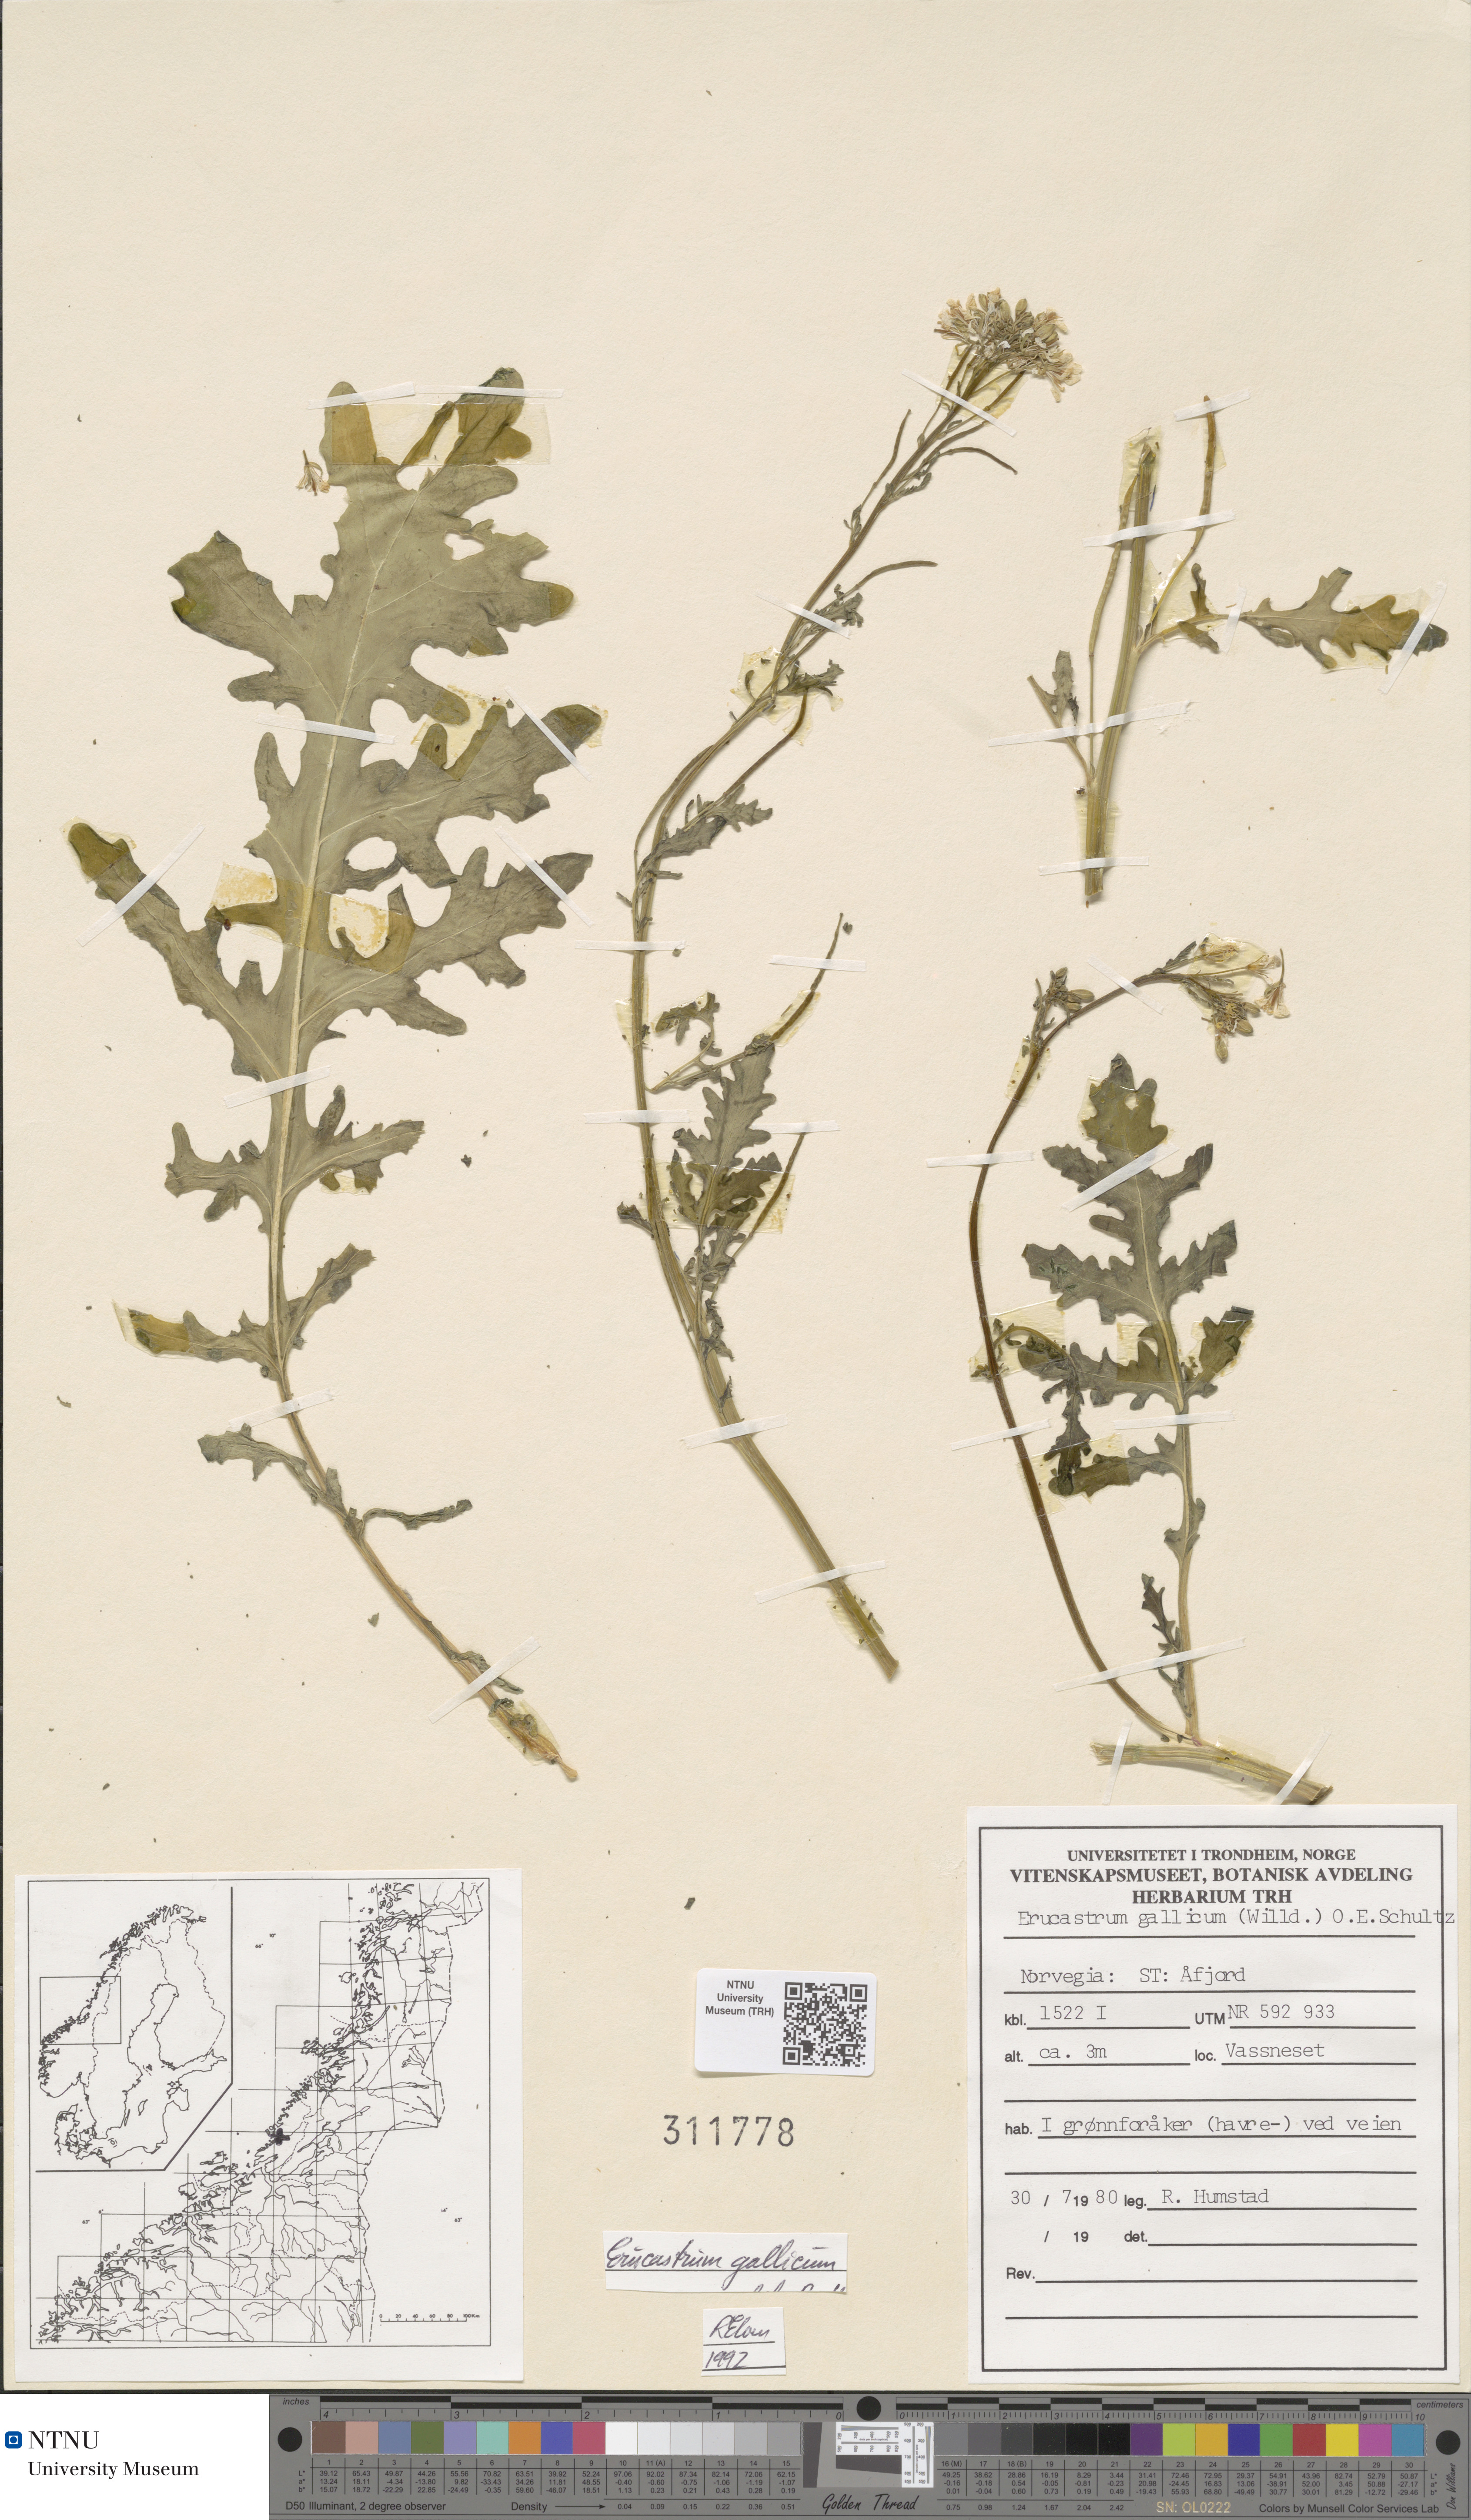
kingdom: Plantae
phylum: Tracheophyta
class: Magnoliopsida
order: Brassicales
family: Brassicaceae
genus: Erucastrum
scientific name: Erucastrum gallicum
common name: Hairy rocket
